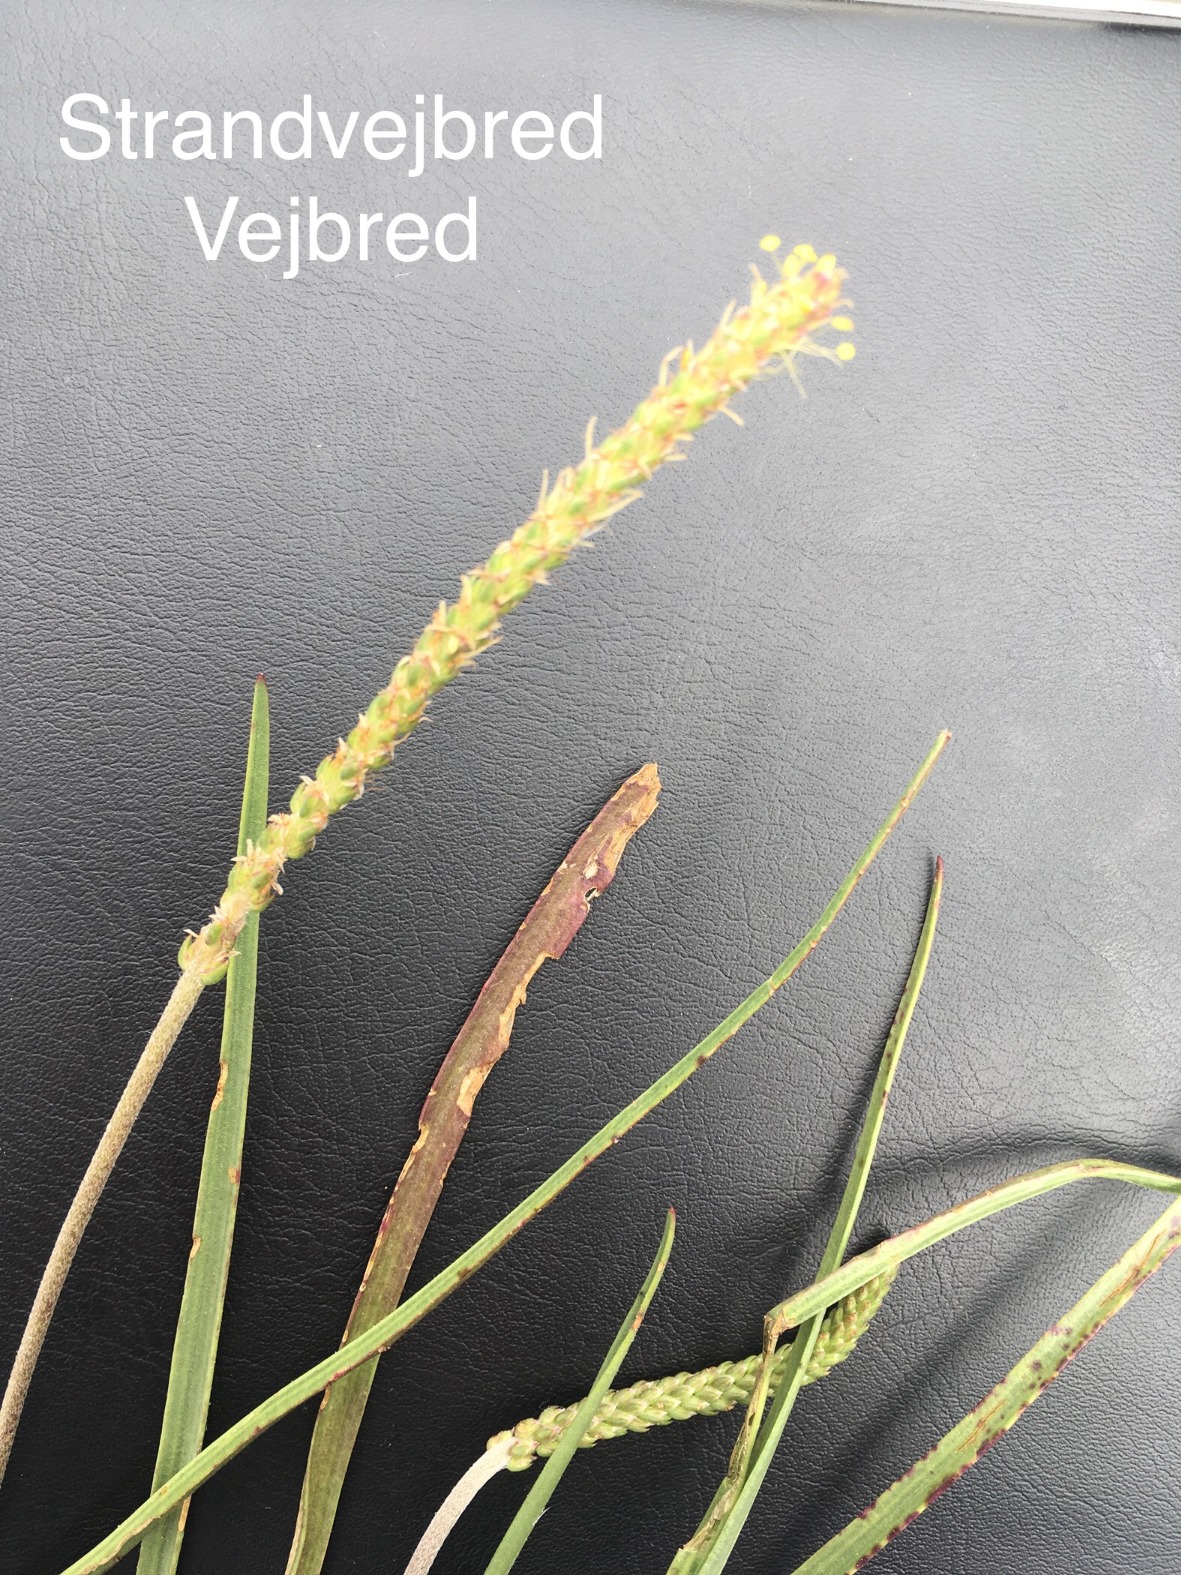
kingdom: Plantae
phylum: Tracheophyta
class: Magnoliopsida
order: Lamiales
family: Plantaginaceae
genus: Plantago
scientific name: Plantago maritima
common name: Strand-vejbred
